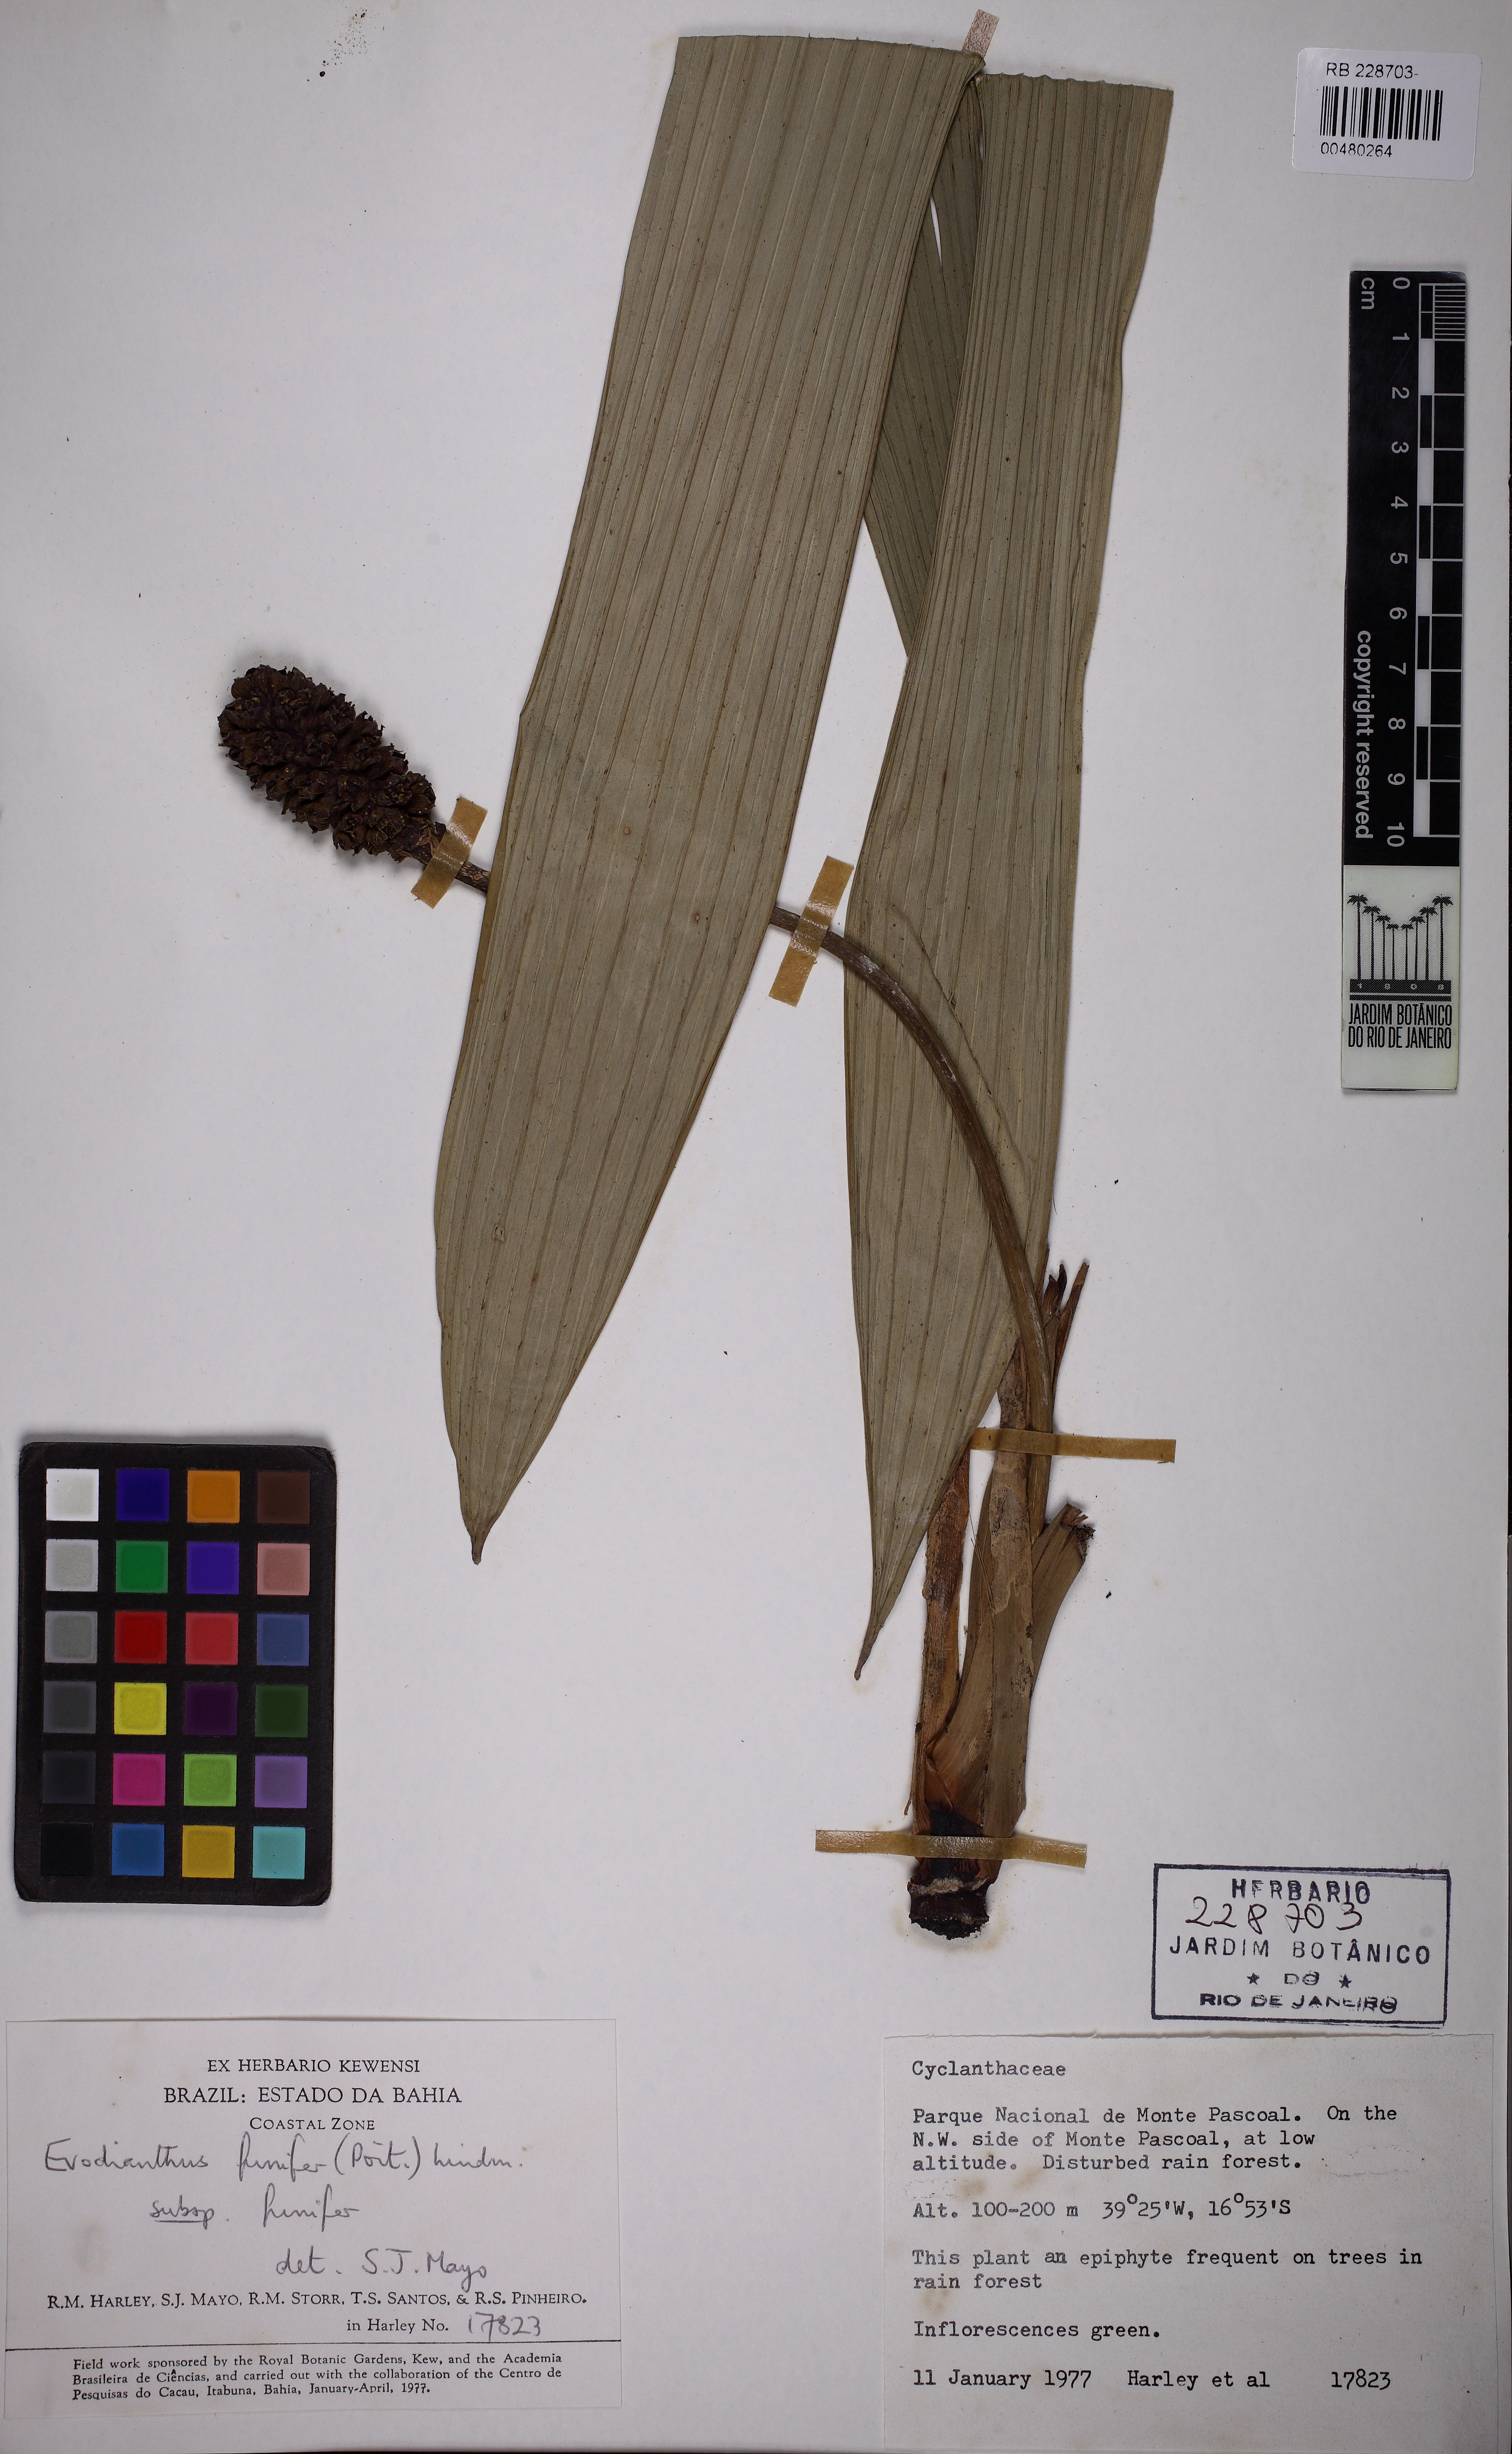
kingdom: Plantae
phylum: Tracheophyta
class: Liliopsida
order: Pandanales
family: Cyclanthaceae
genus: Evodianthus
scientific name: Evodianthus funifer
